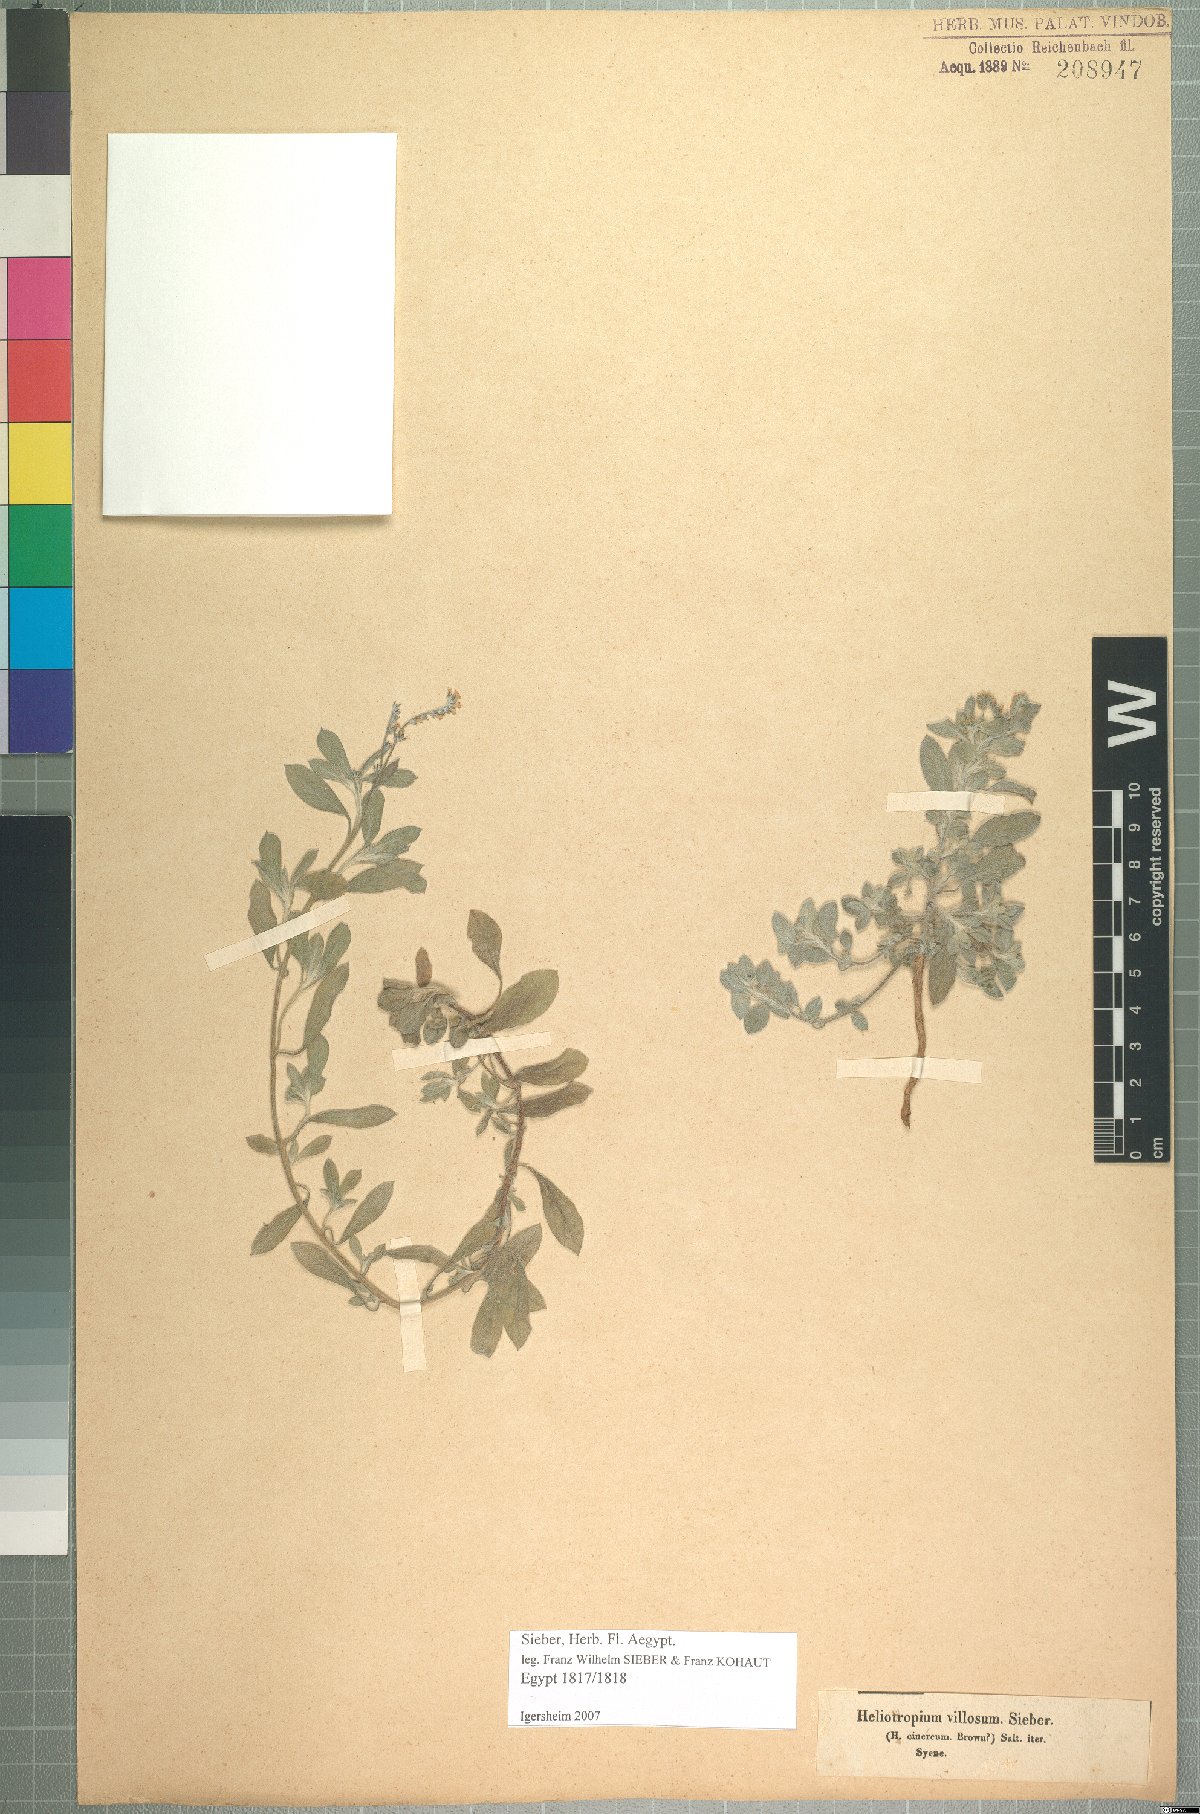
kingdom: Plantae
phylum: Tracheophyta
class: Magnoliopsida
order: Boraginales
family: Heliotropiaceae
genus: Euploca
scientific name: Euploca ovalifolia
